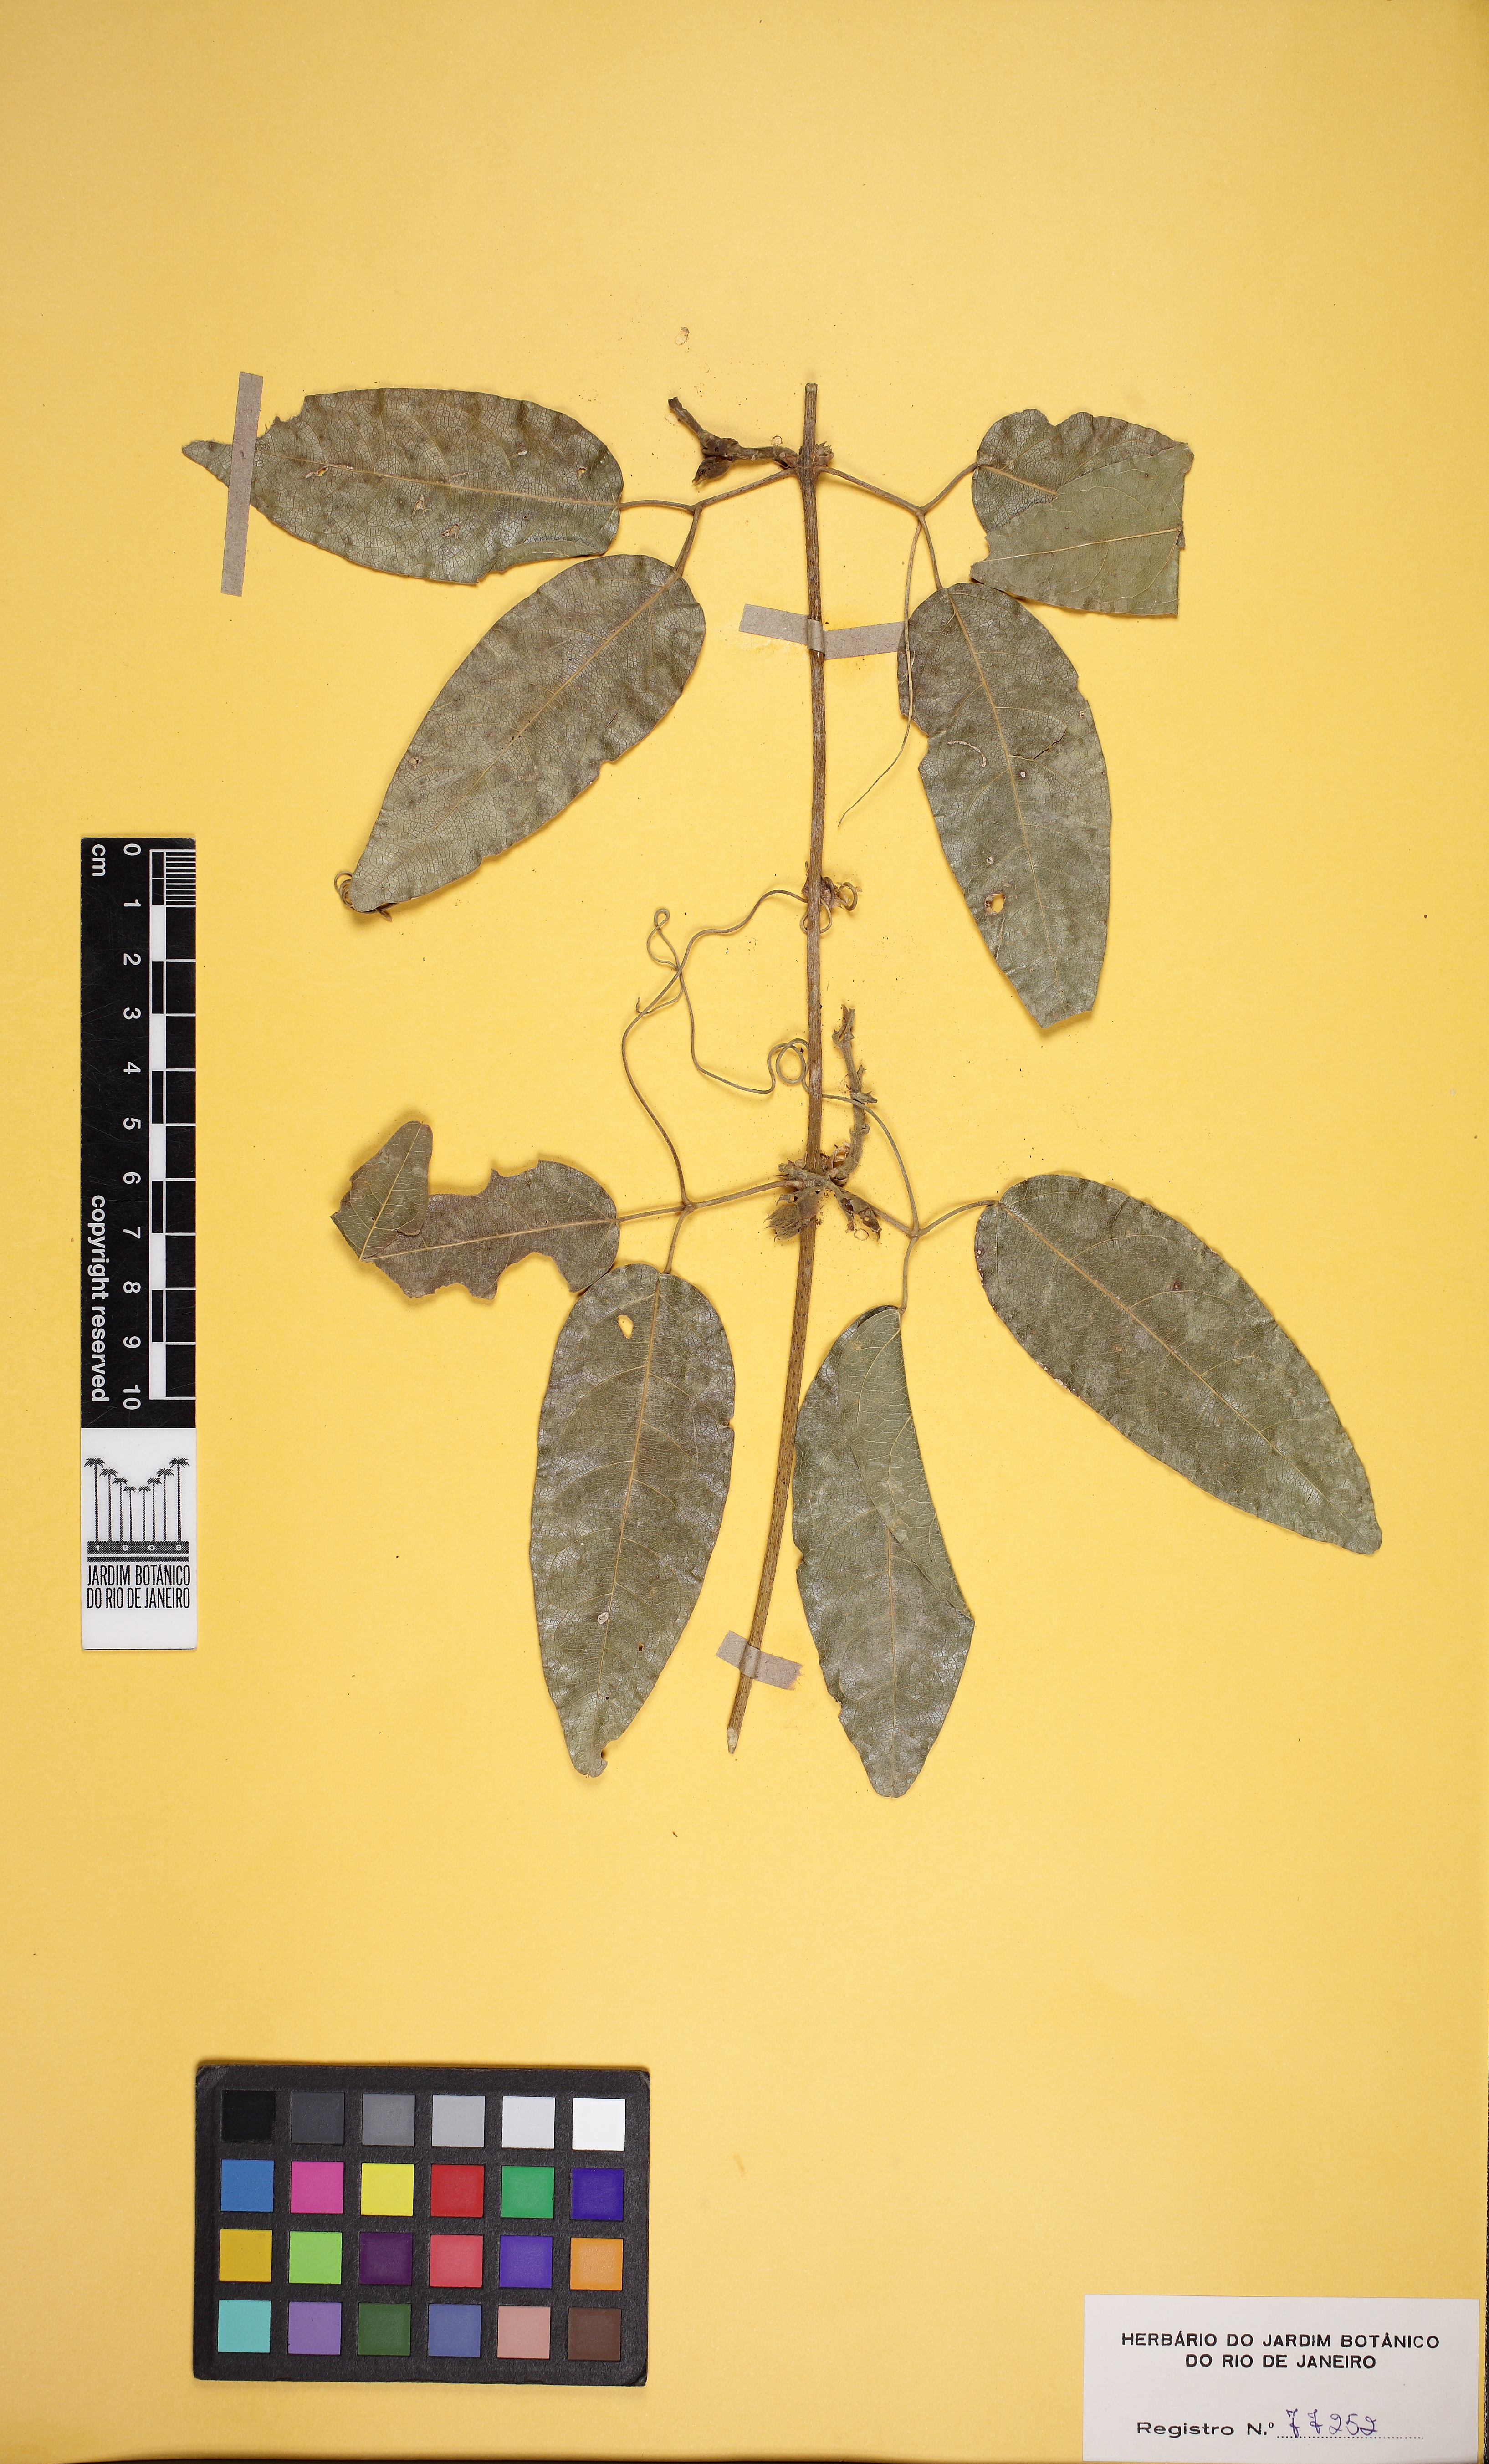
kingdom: Plantae
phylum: Tracheophyta
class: Magnoliopsida
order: Lamiales
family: Bignoniaceae
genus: Adenocalymma
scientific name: Adenocalymma bracteatum
